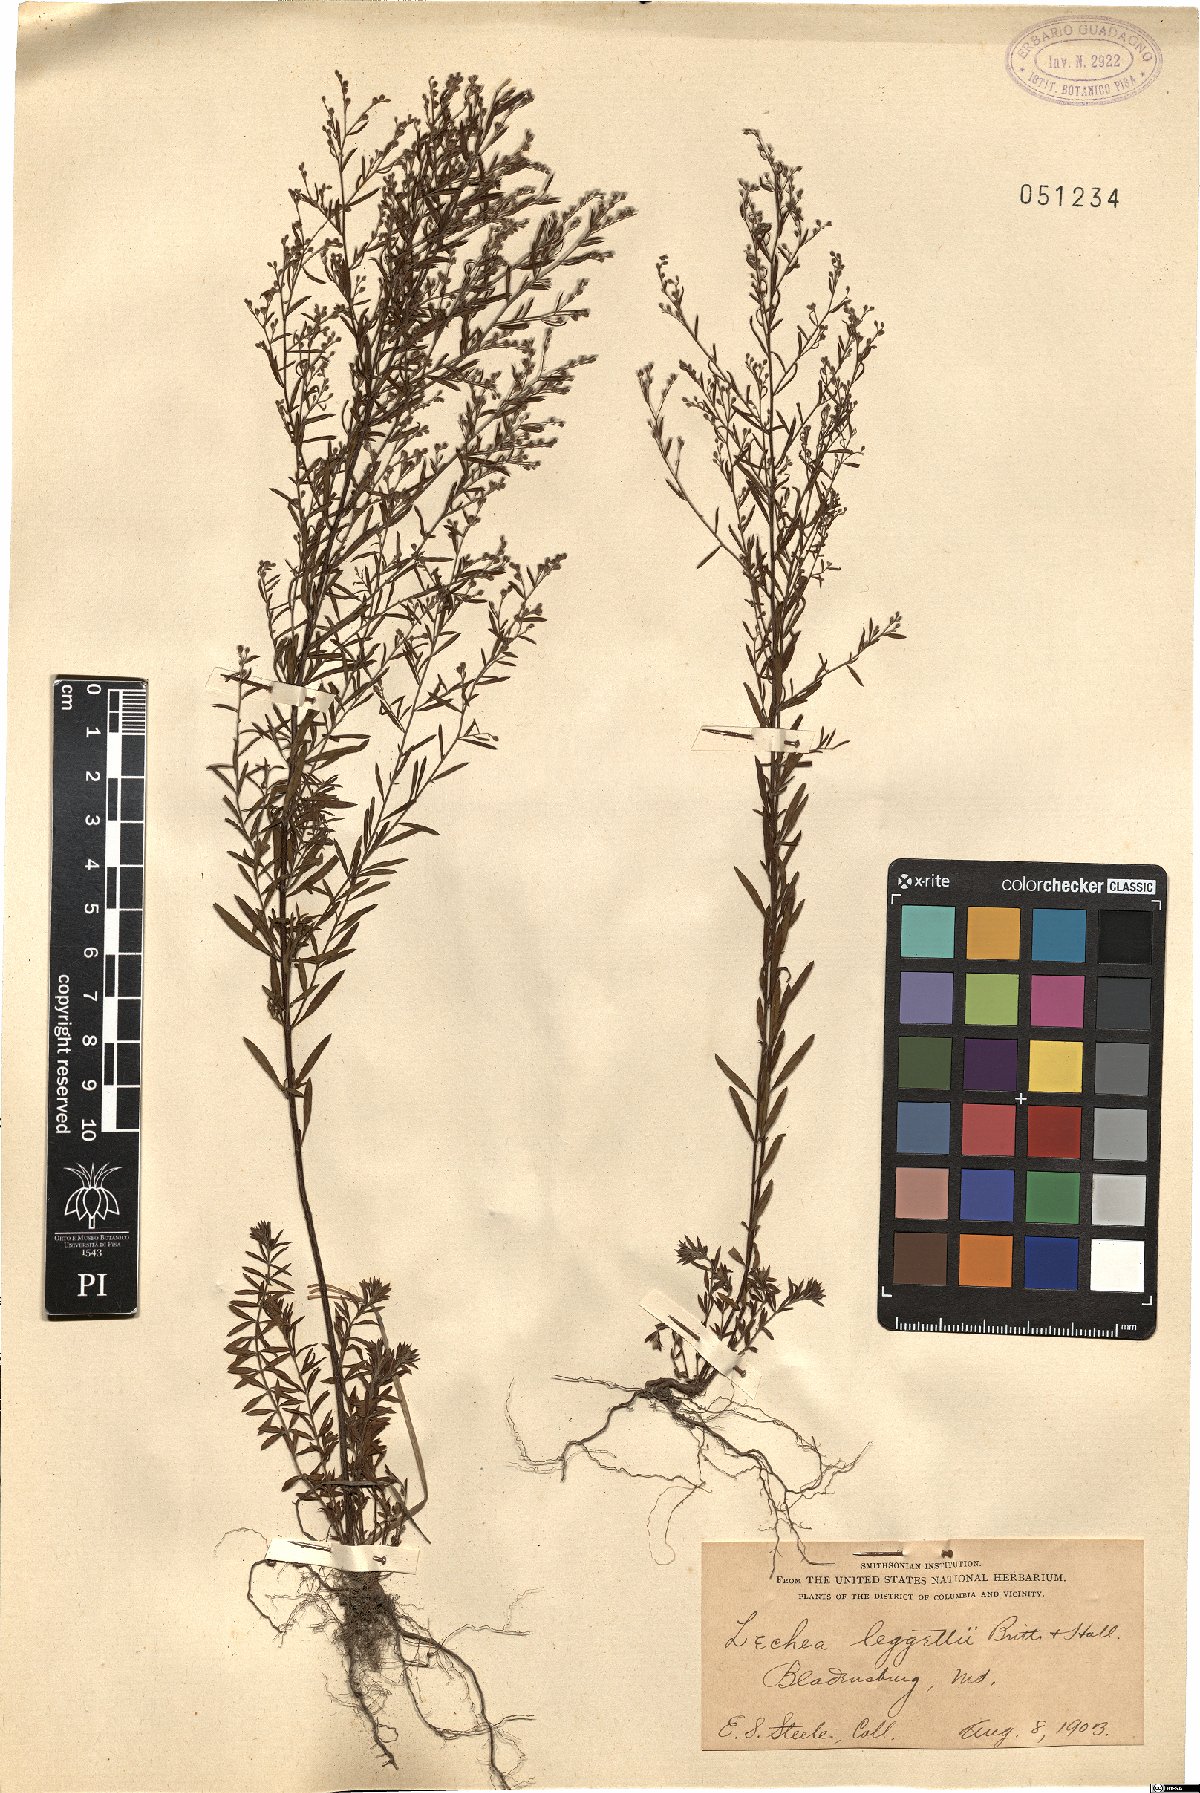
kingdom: Plantae
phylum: Tracheophyta
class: Magnoliopsida
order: Malvales
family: Cistaceae
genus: Lechea
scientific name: Lechea pulchella
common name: Leggett's pinweed
